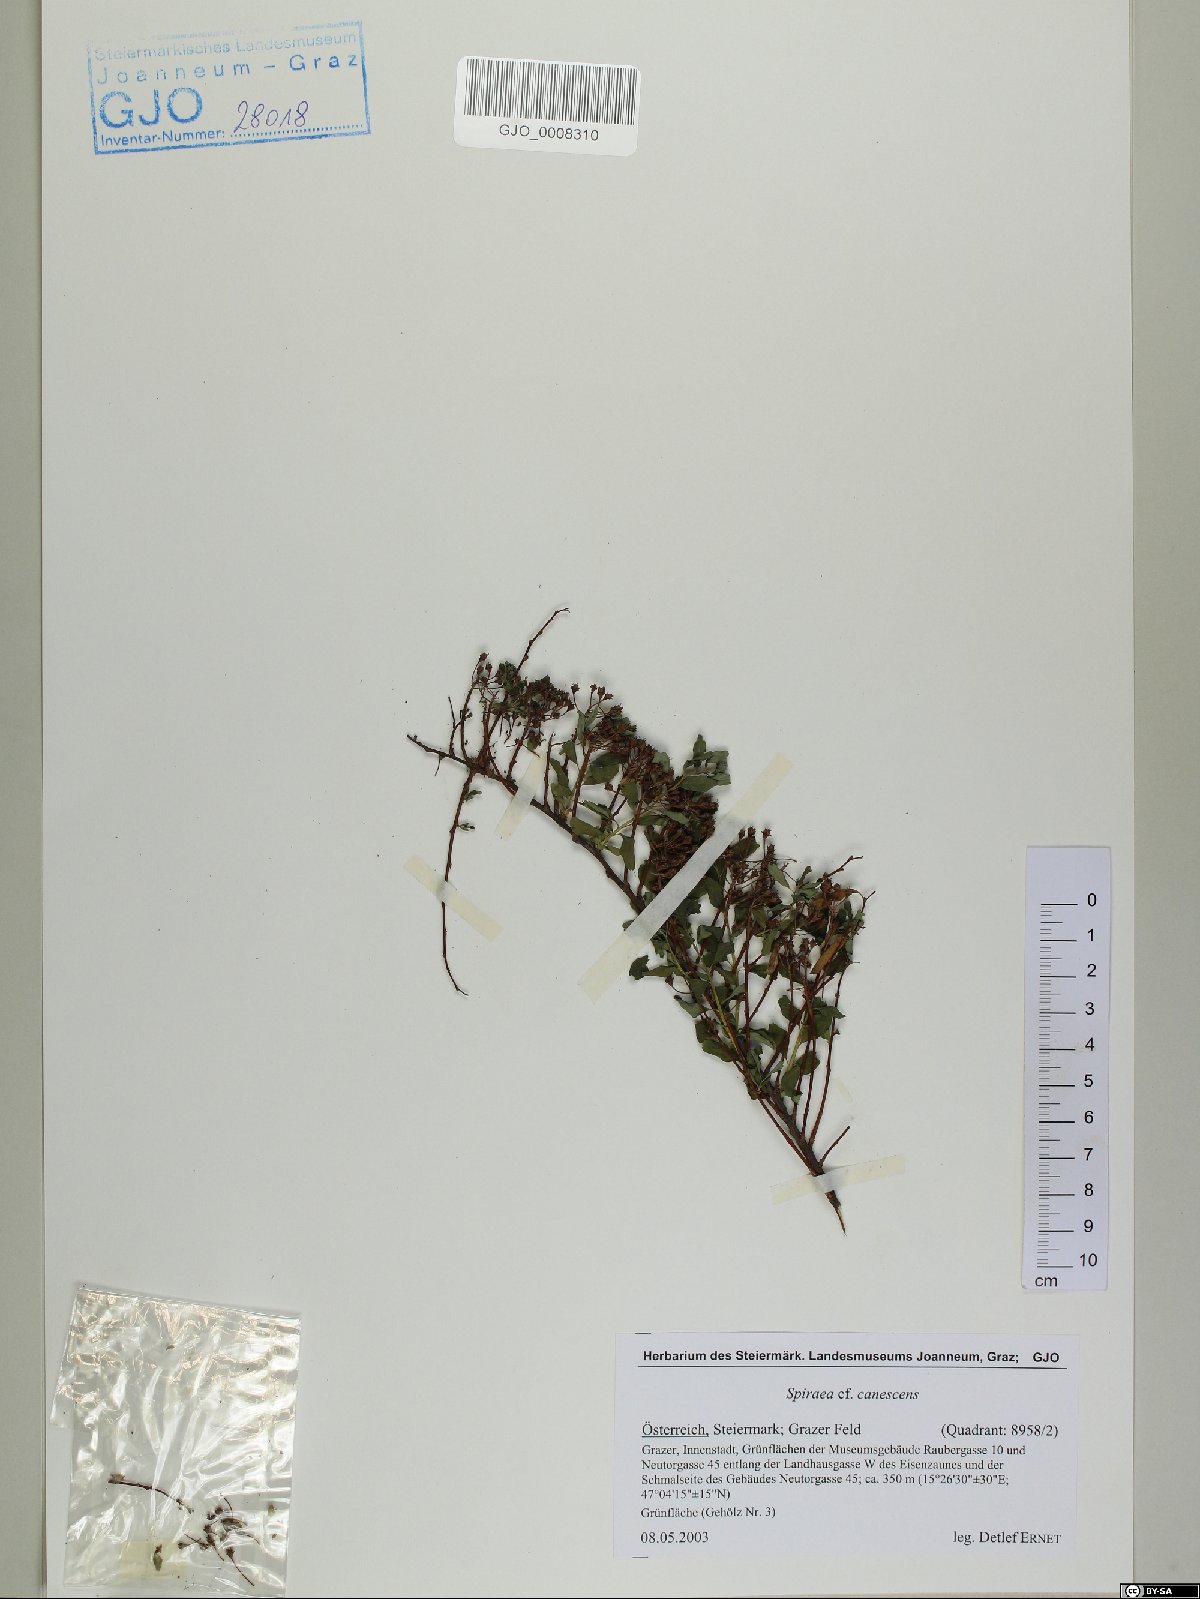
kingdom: Plantae
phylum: Tracheophyta
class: Magnoliopsida
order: Rosales
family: Rosaceae
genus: Spiraea
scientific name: Spiraea canescens
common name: Himalayan spiraea
